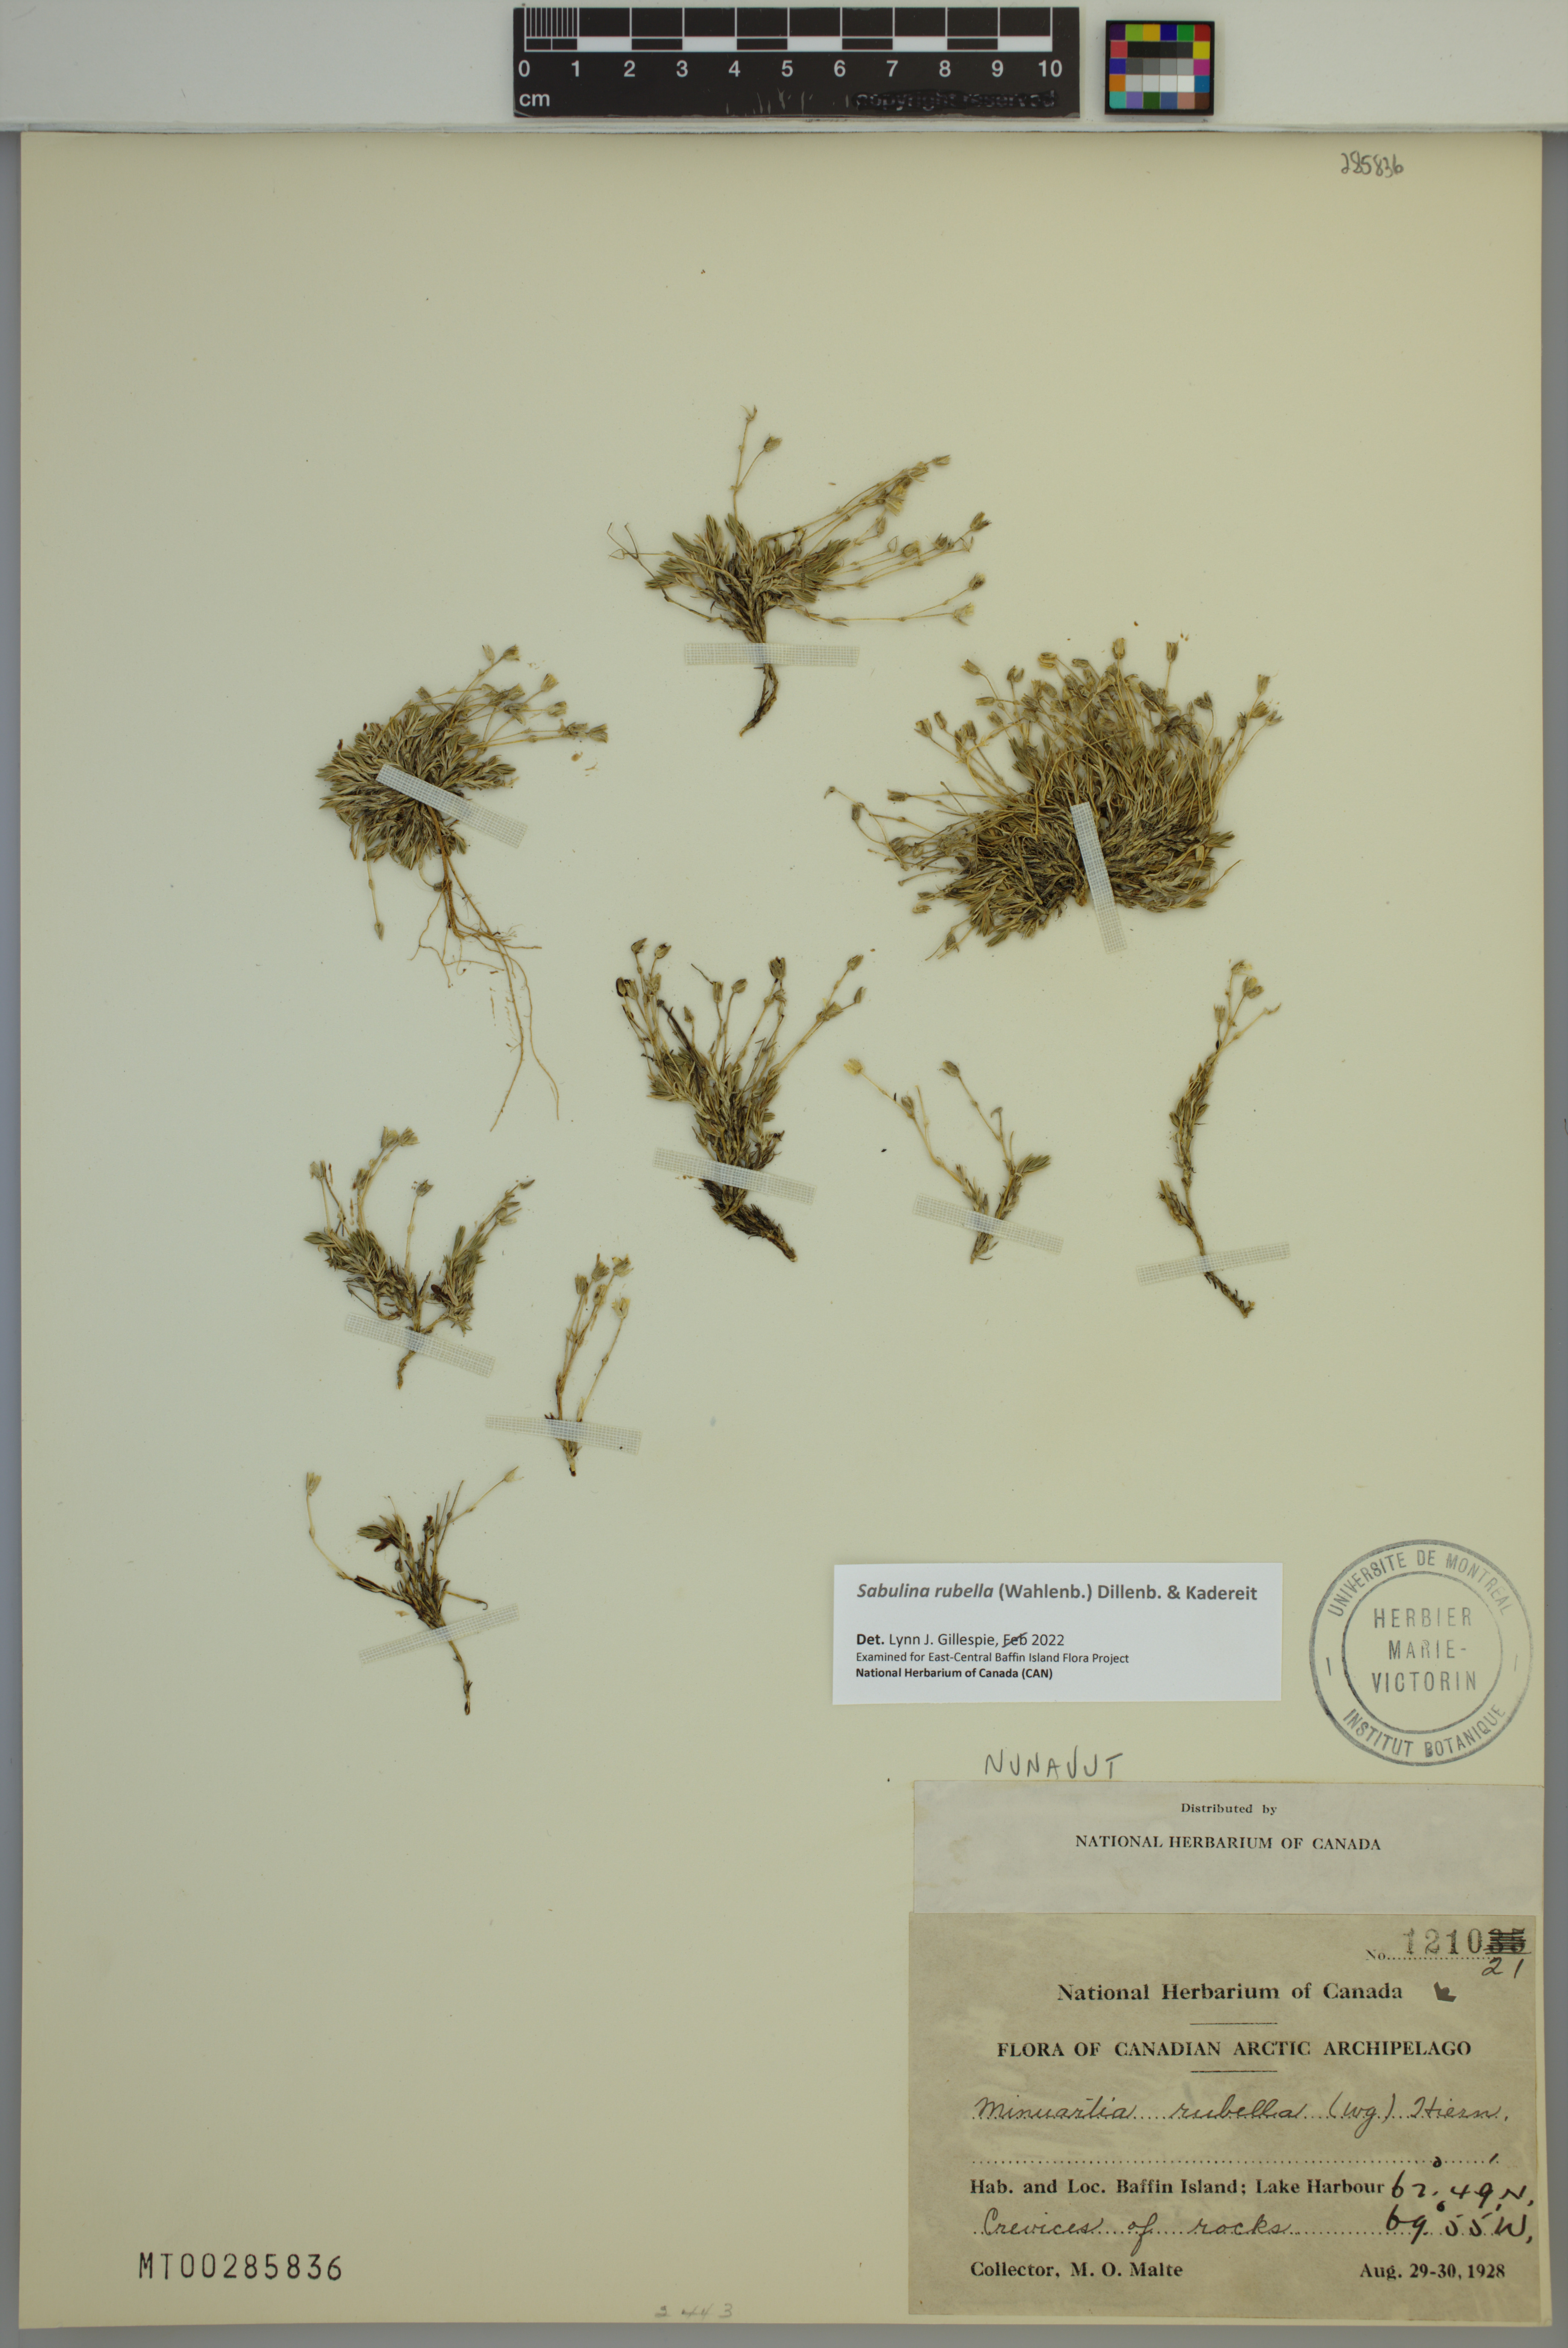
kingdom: Plantae
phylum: Tracheophyta
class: Magnoliopsida
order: Caryophyllales
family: Caryophyllaceae
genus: Sabulina
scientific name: Sabulina rubella
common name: Beautiful sandwort
